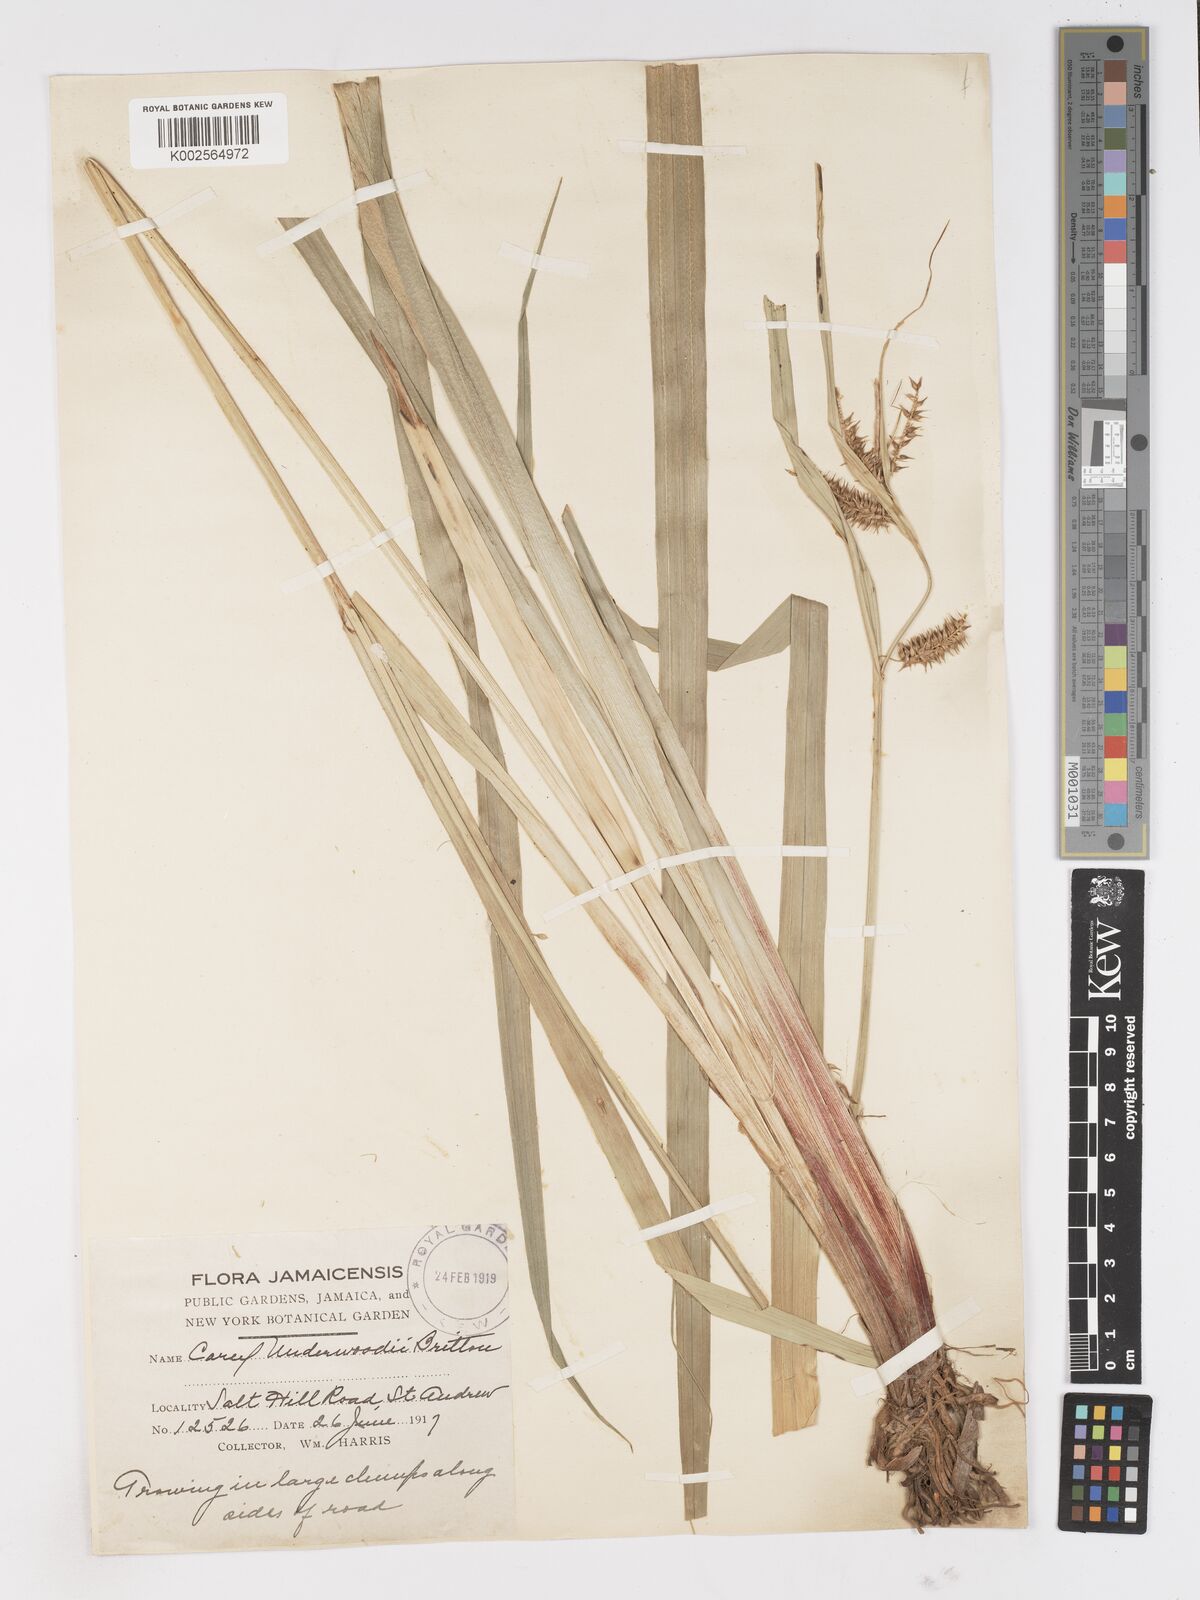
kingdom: Plantae
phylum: Tracheophyta
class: Liliopsida
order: Poales
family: Cyperaceae
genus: Carex
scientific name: Carex polysticha
